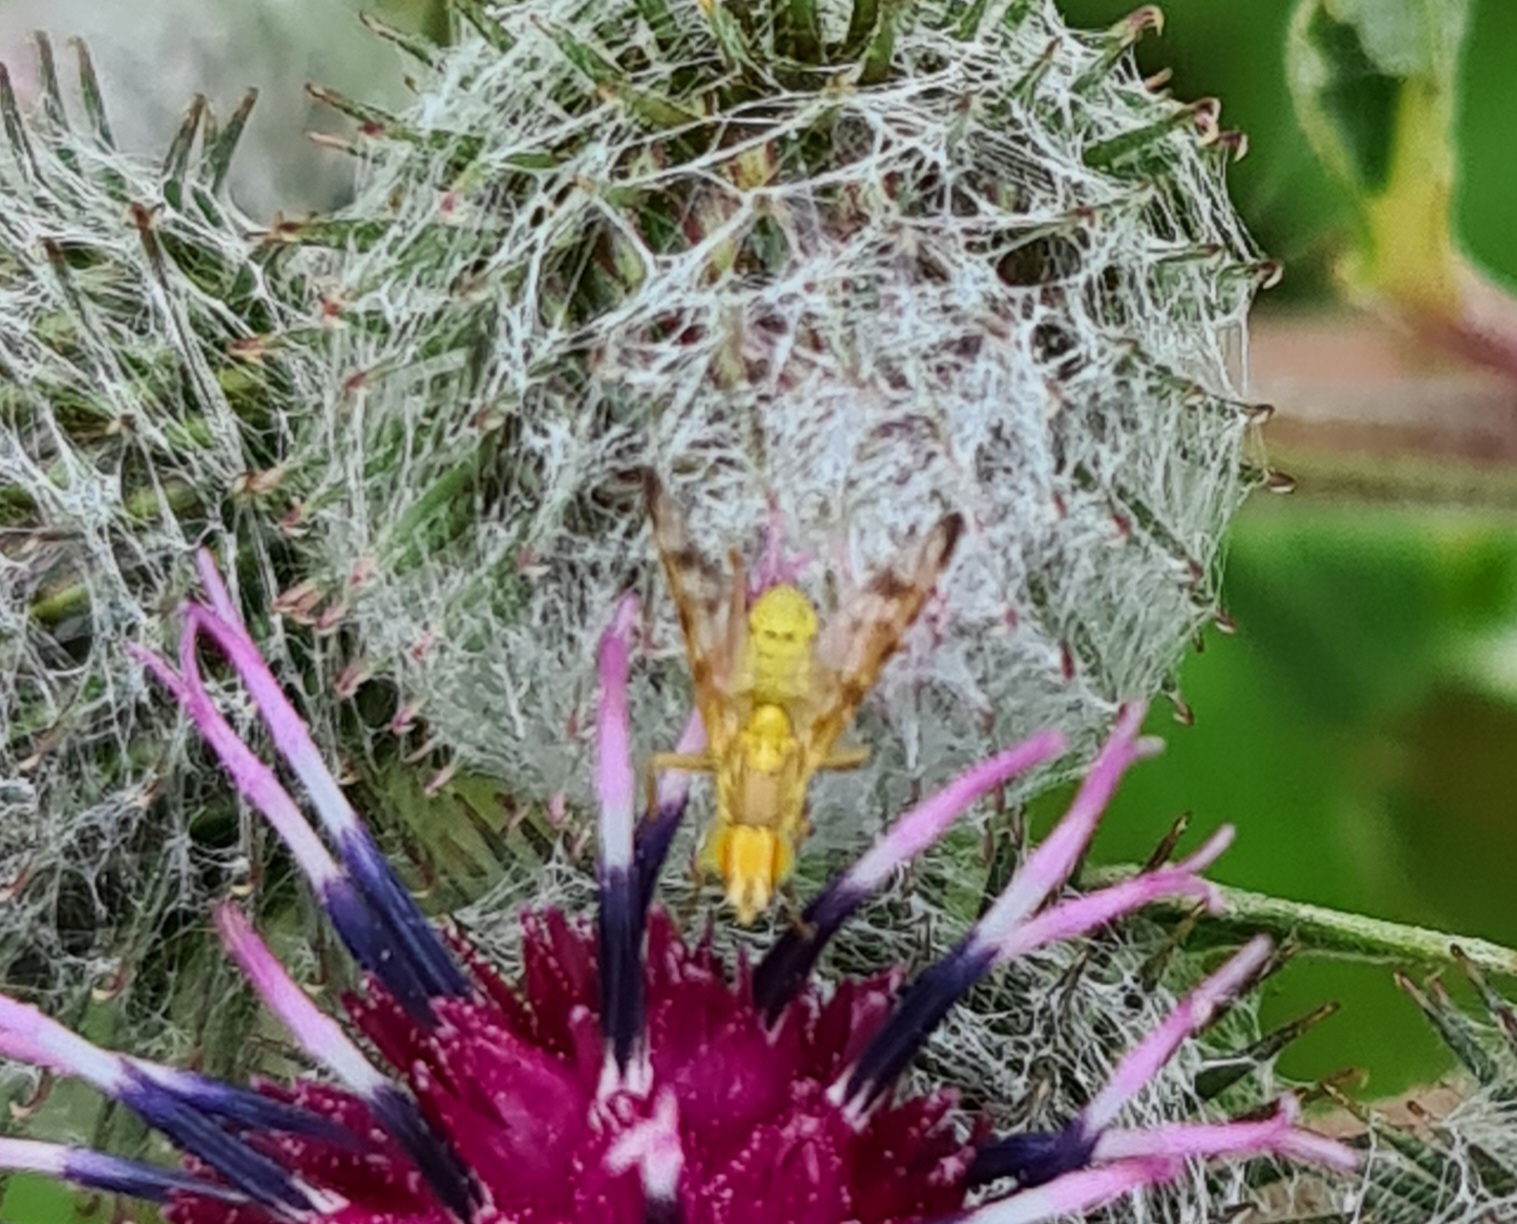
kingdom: Animalia
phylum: Arthropoda
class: Insecta
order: Diptera
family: Tephritidae
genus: Terellia
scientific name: Terellia tussilaginis
